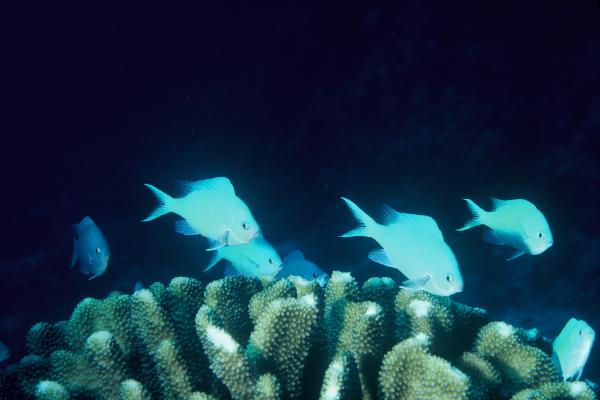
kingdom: Animalia
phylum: Chordata
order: Perciformes
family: Pomacentridae
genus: Chromis
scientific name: Chromis viridis
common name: Blue-green chromis
